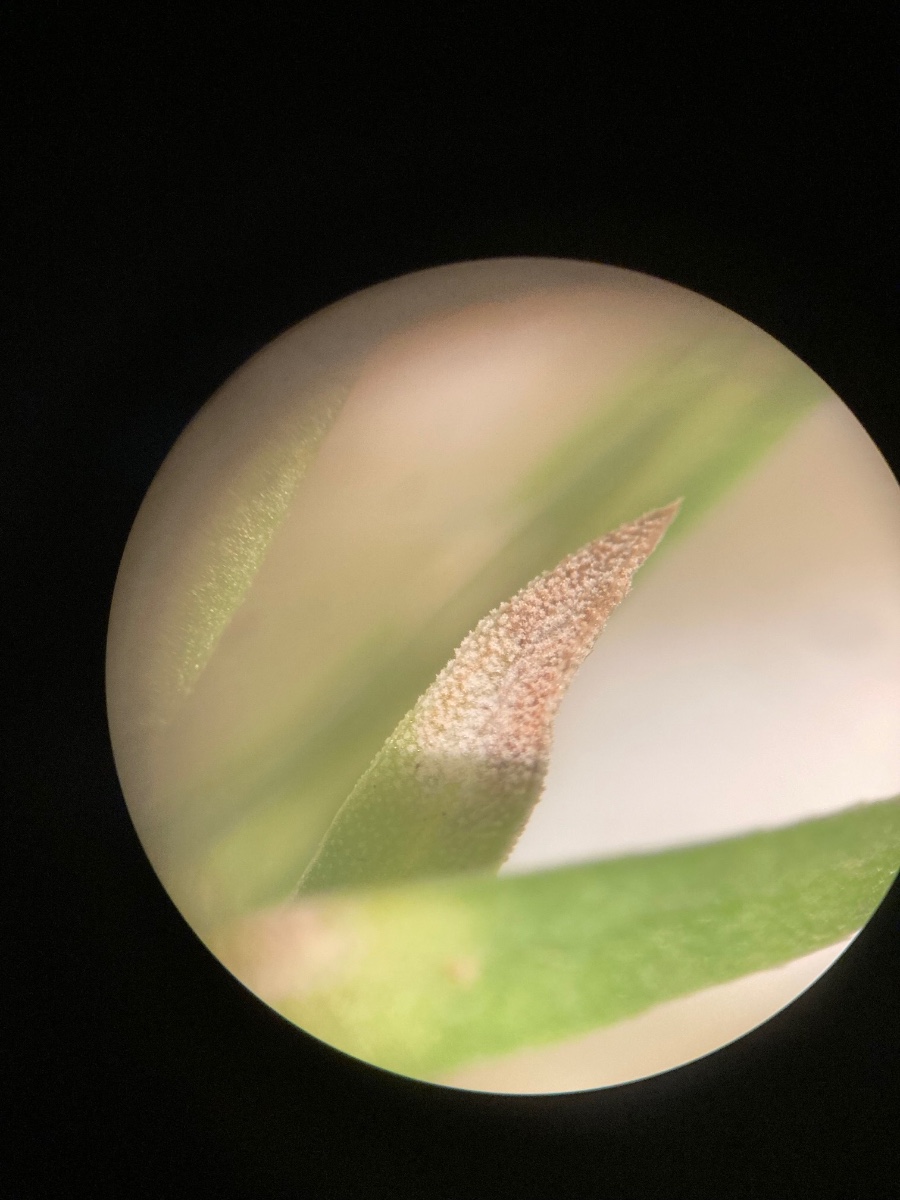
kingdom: Fungi
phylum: Basidiomycota
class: Exobasidiomycetes
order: Entylomatales
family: Entylomataceae
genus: Entyloma
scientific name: Entyloma cosmi
